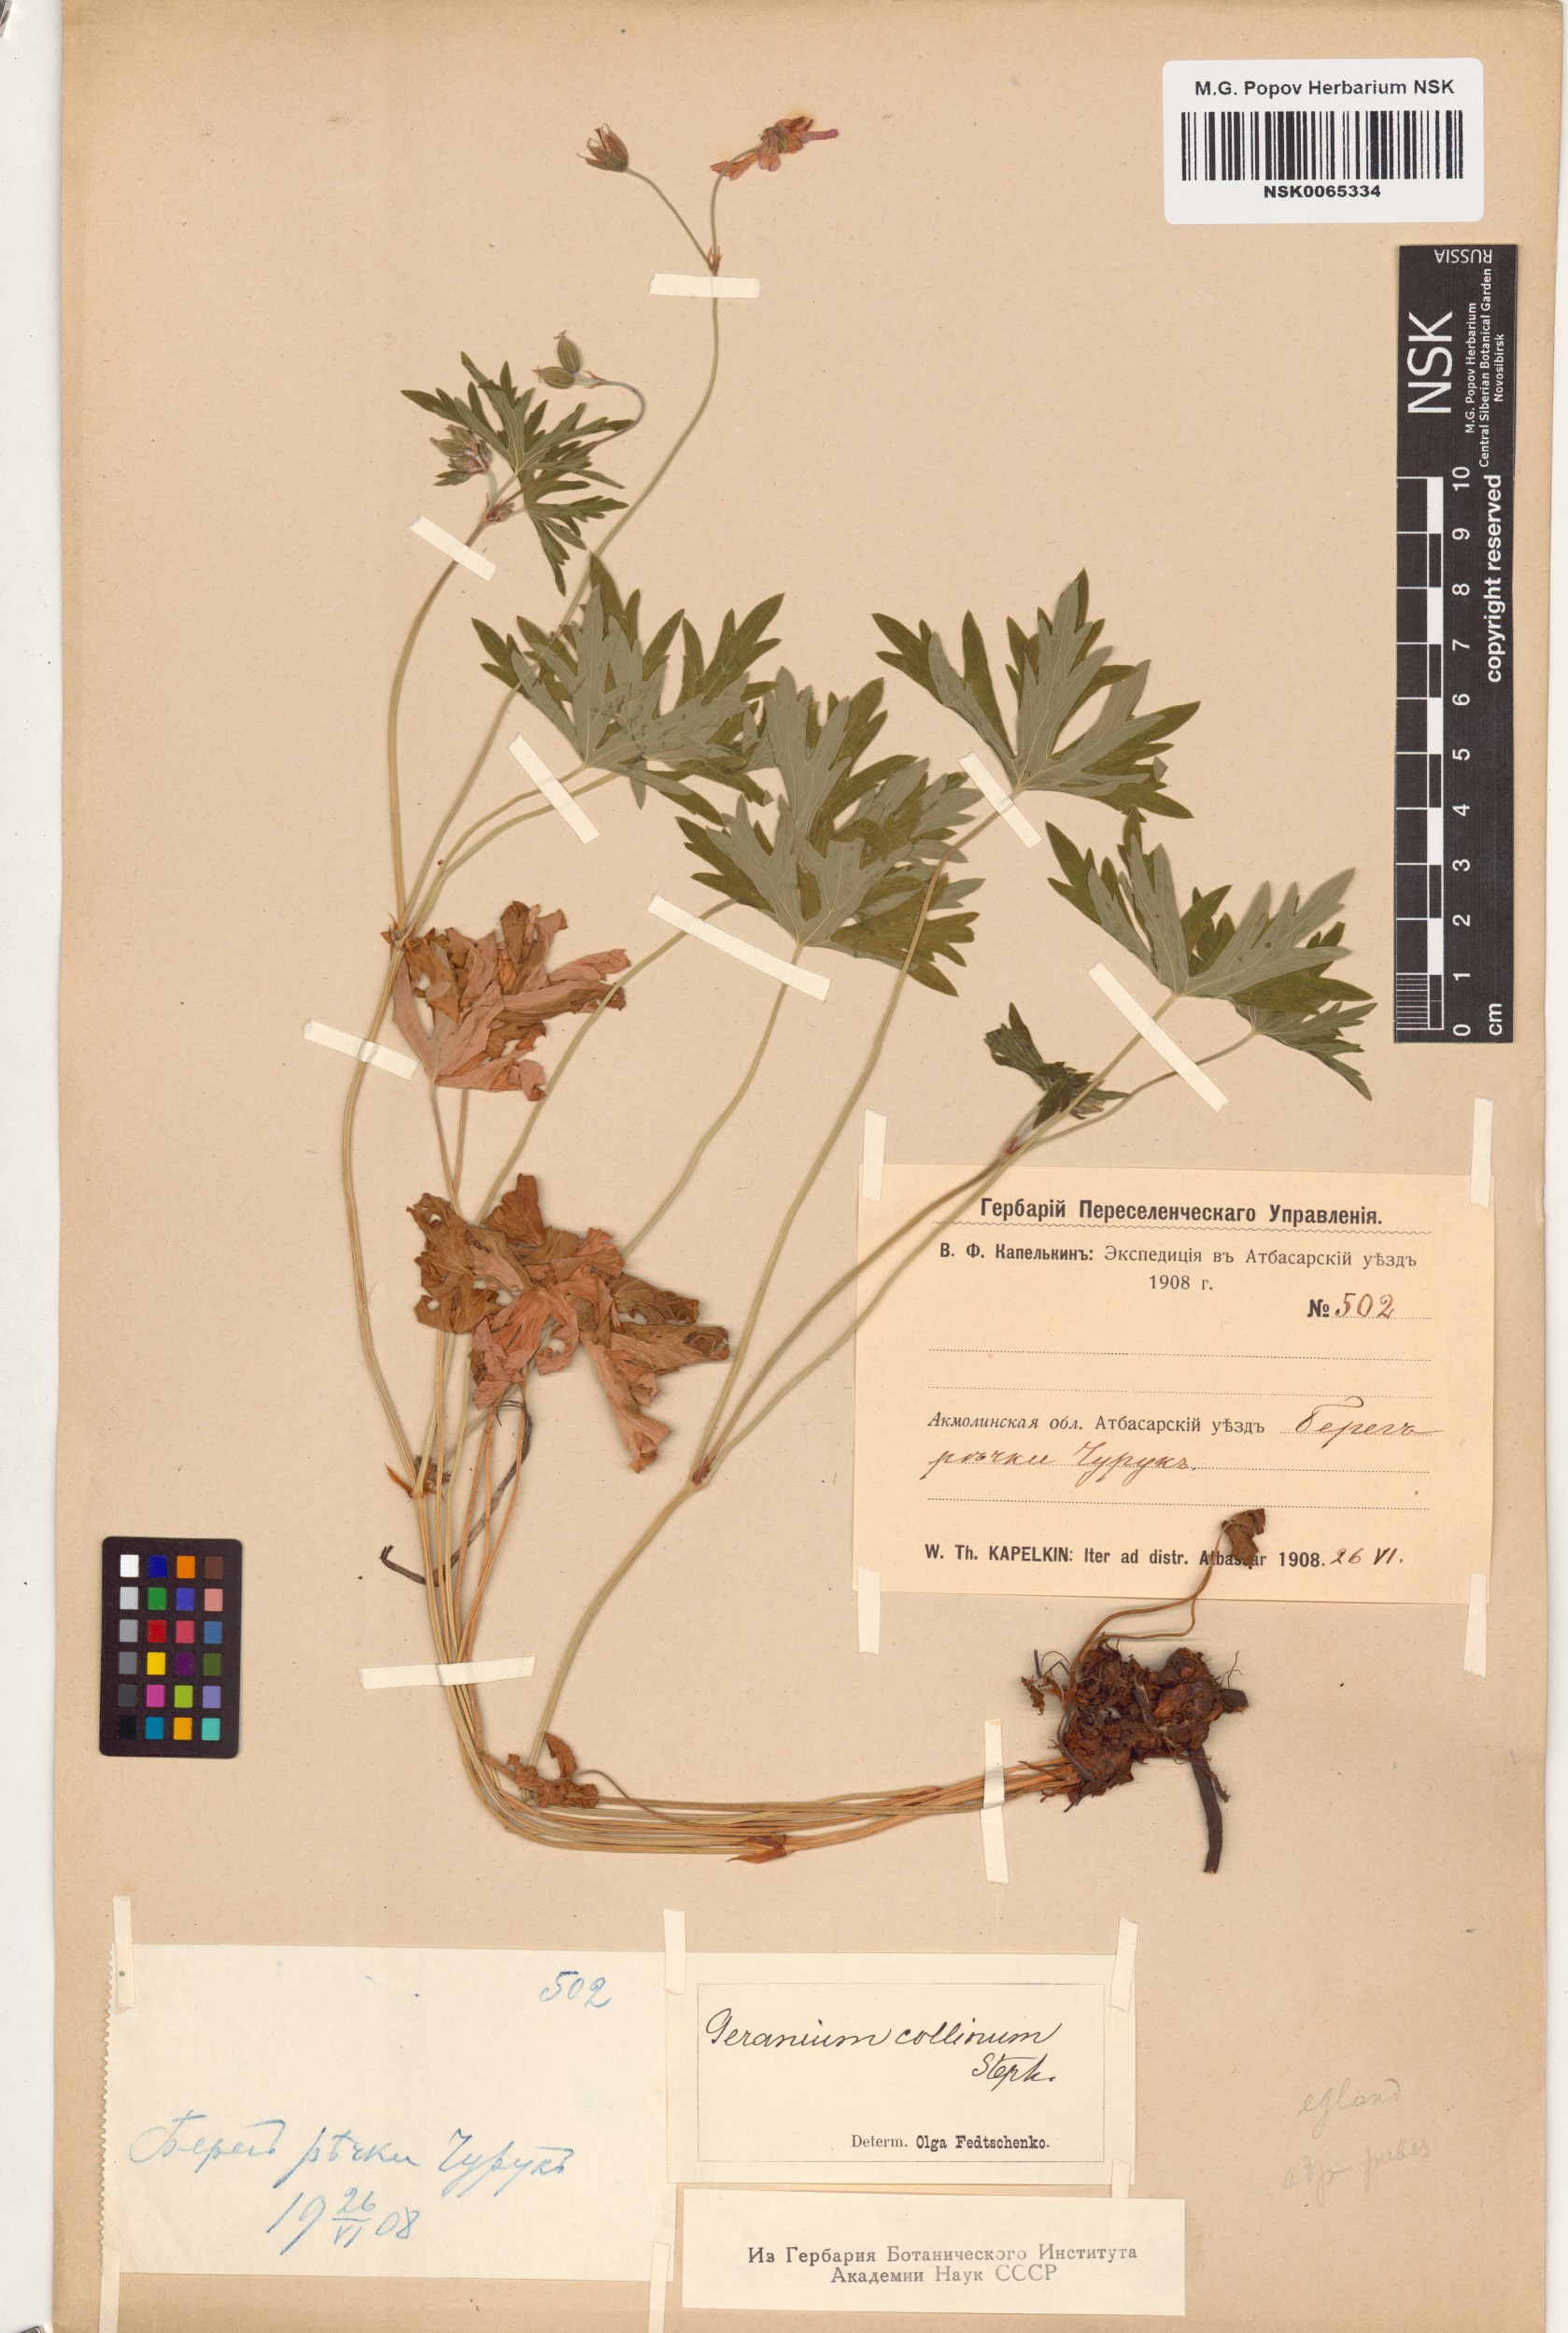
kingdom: Plantae
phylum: Tracheophyta
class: Magnoliopsida
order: Geraniales
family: Geraniaceae
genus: Geranium
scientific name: Geranium collinum
